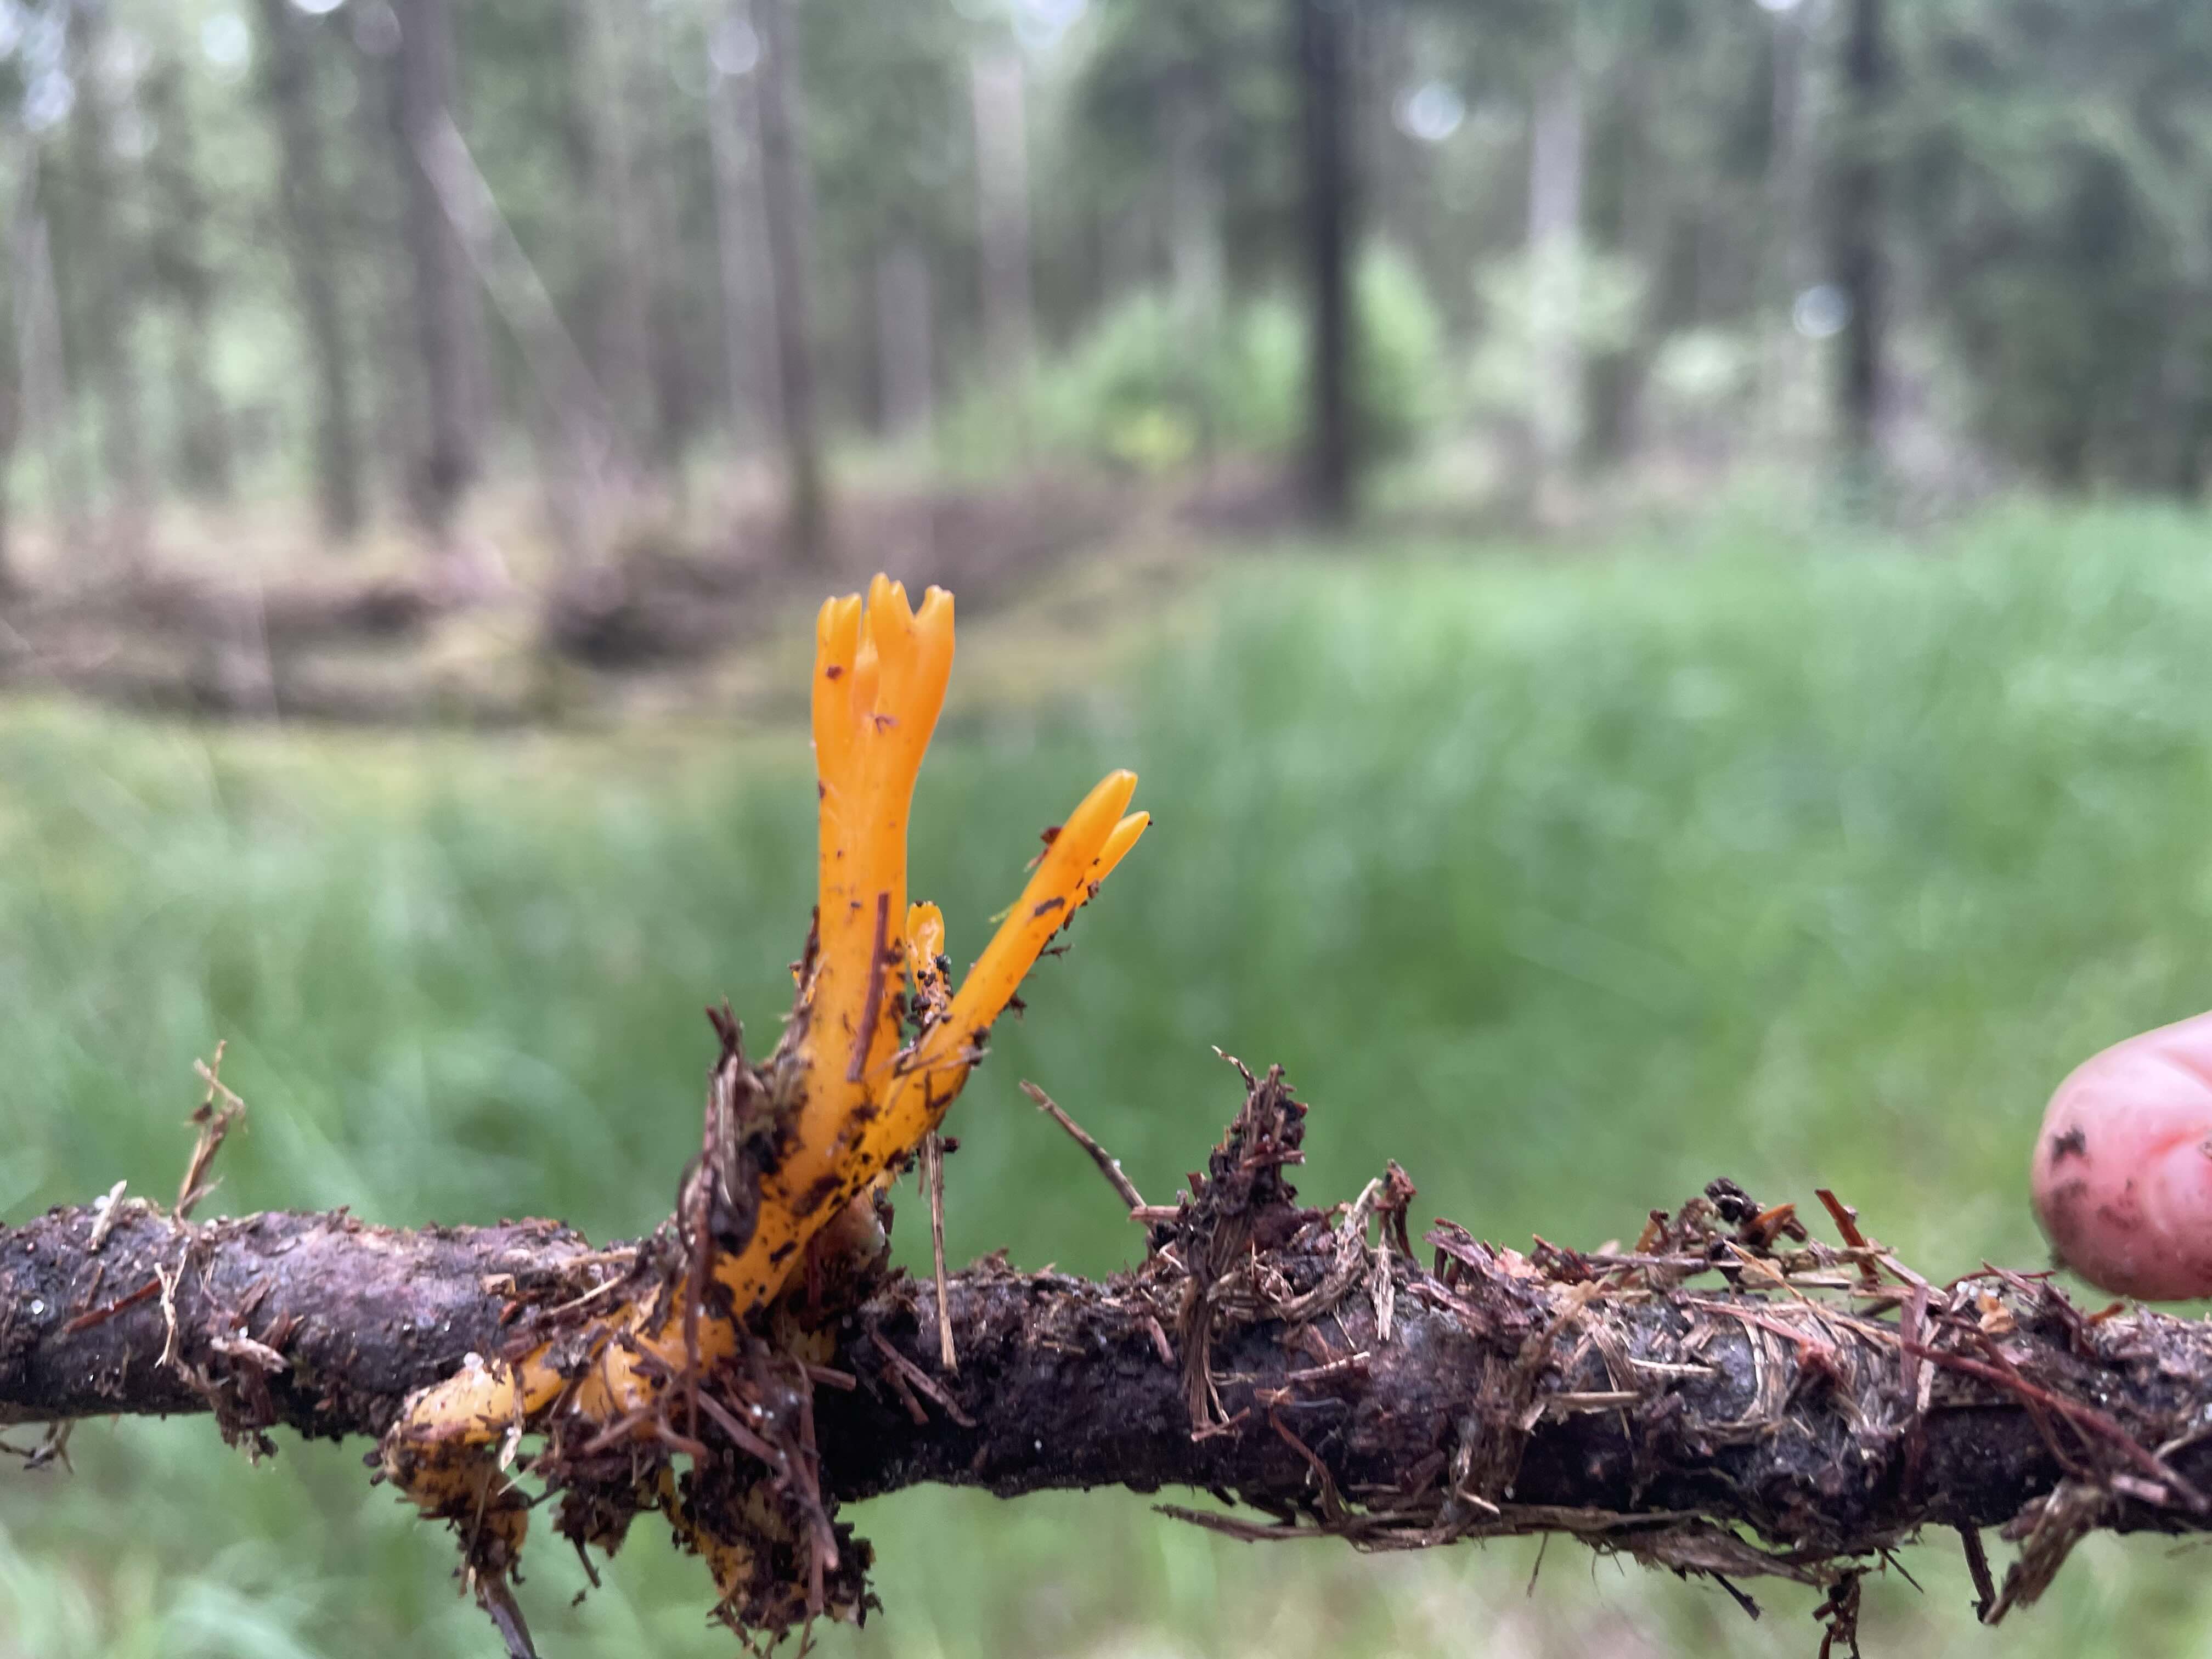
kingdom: Fungi
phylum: Basidiomycota
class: Dacrymycetes
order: Dacrymycetales
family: Dacrymycetaceae
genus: Calocera
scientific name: Calocera viscosa
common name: almindelig guldgaffel
